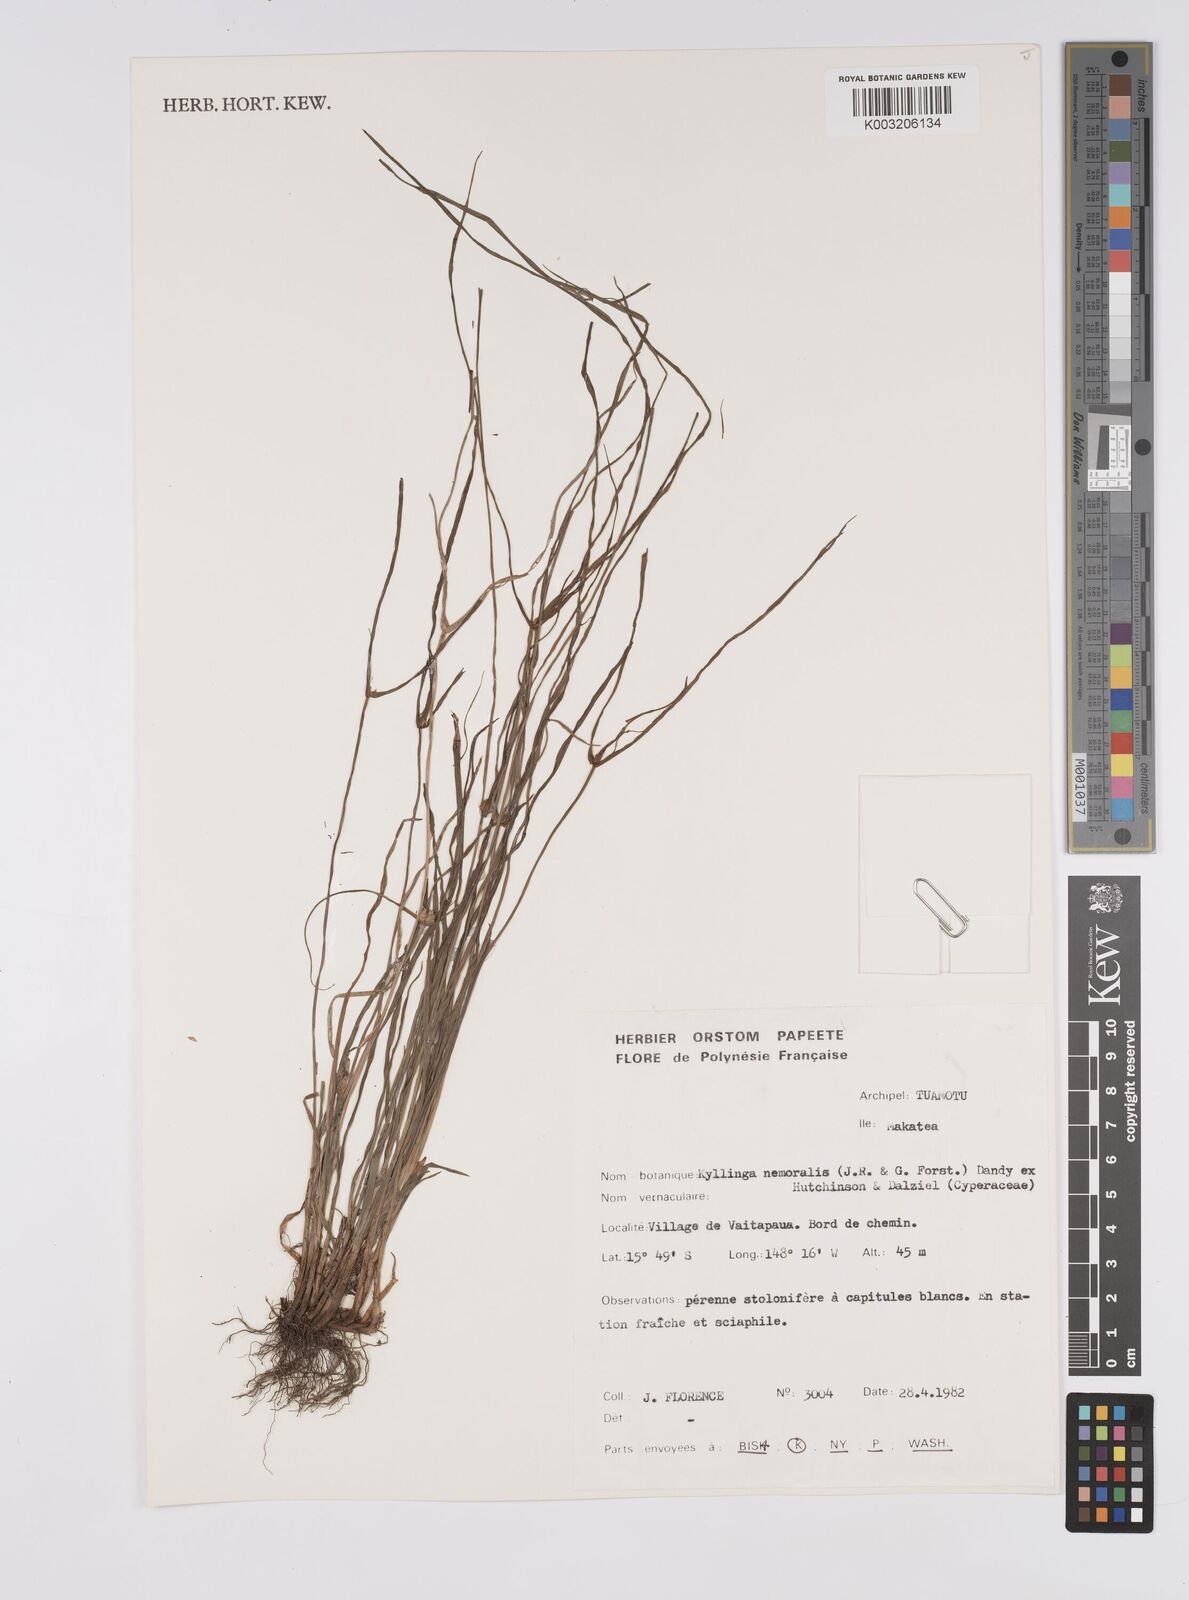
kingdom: Plantae
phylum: Tracheophyta
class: Liliopsida
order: Poales
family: Cyperaceae
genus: Cyperus
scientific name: Cyperus nemoralis
